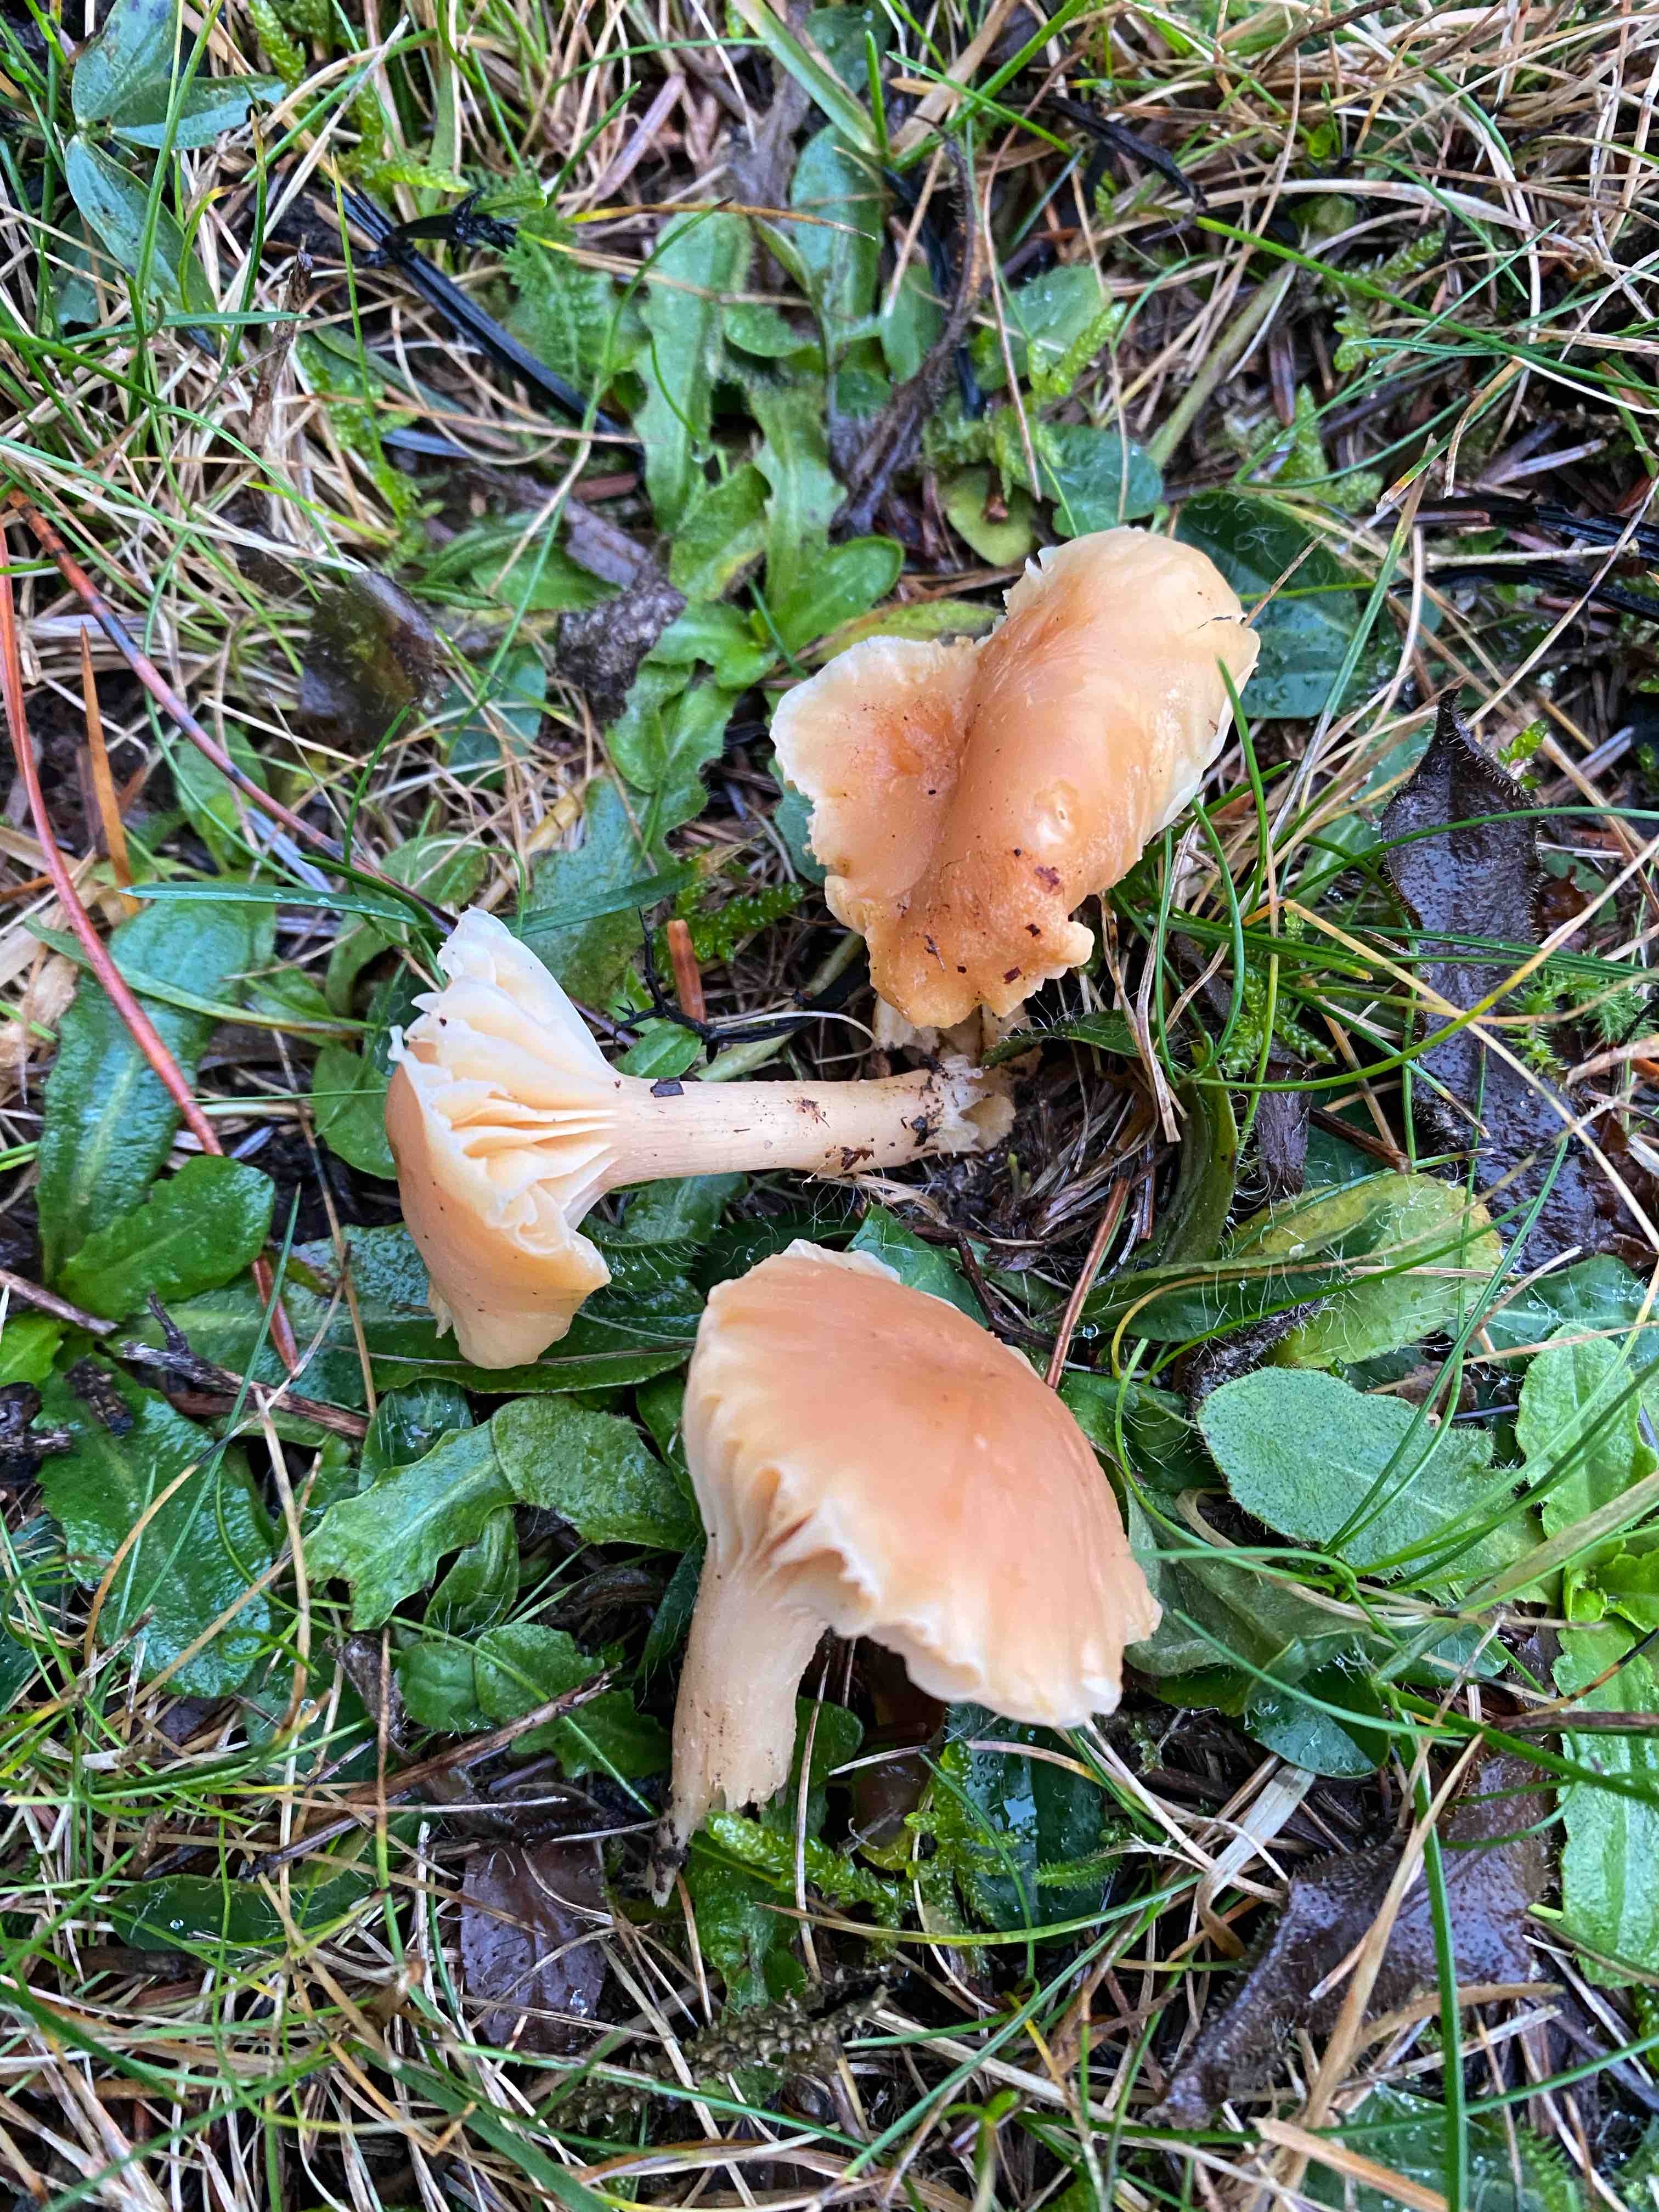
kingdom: Fungi
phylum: Basidiomycota
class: Agaricomycetes
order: Agaricales
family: Hygrophoraceae
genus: Cuphophyllus
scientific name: Cuphophyllus pratensis
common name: eng-vokshat
